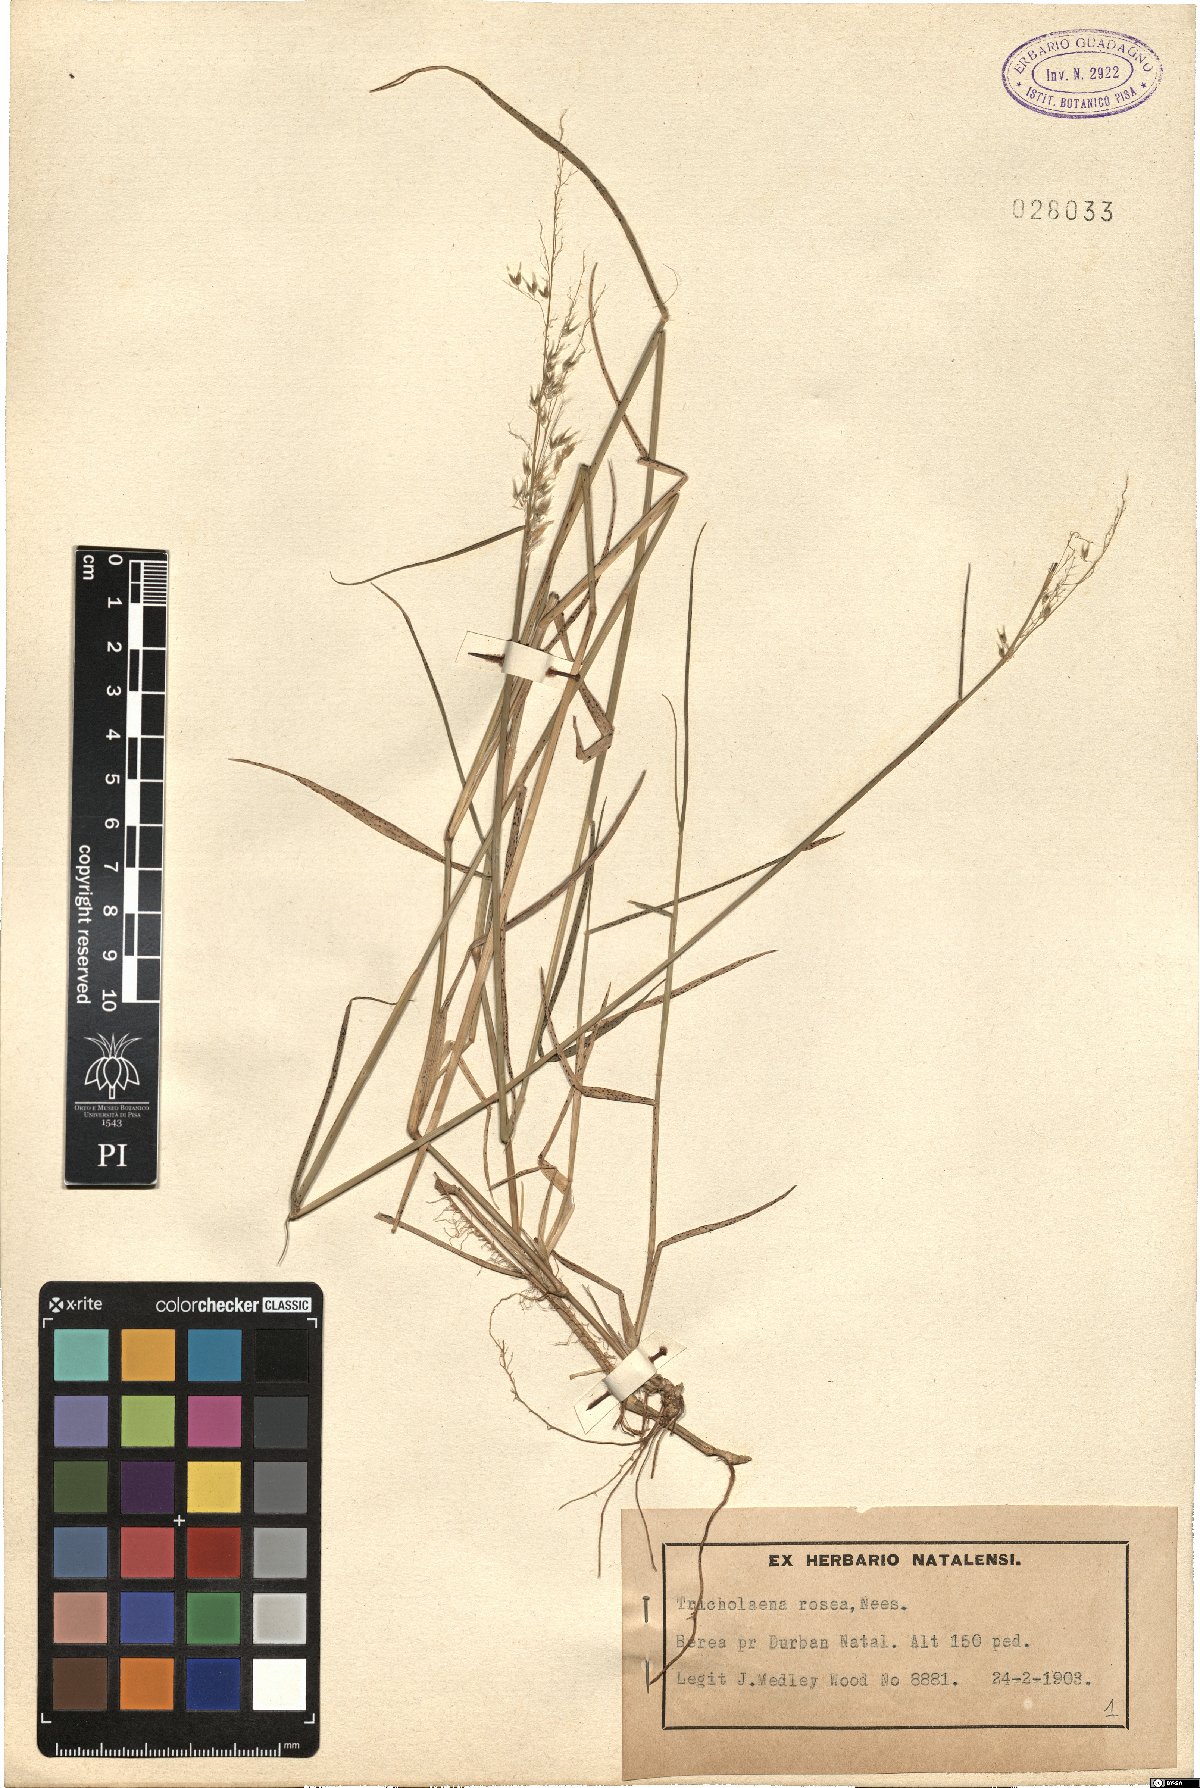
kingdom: Plantae
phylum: Tracheophyta
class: Liliopsida
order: Poales
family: Poaceae
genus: Melinis
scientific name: Melinis repens
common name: Rose natal grass
